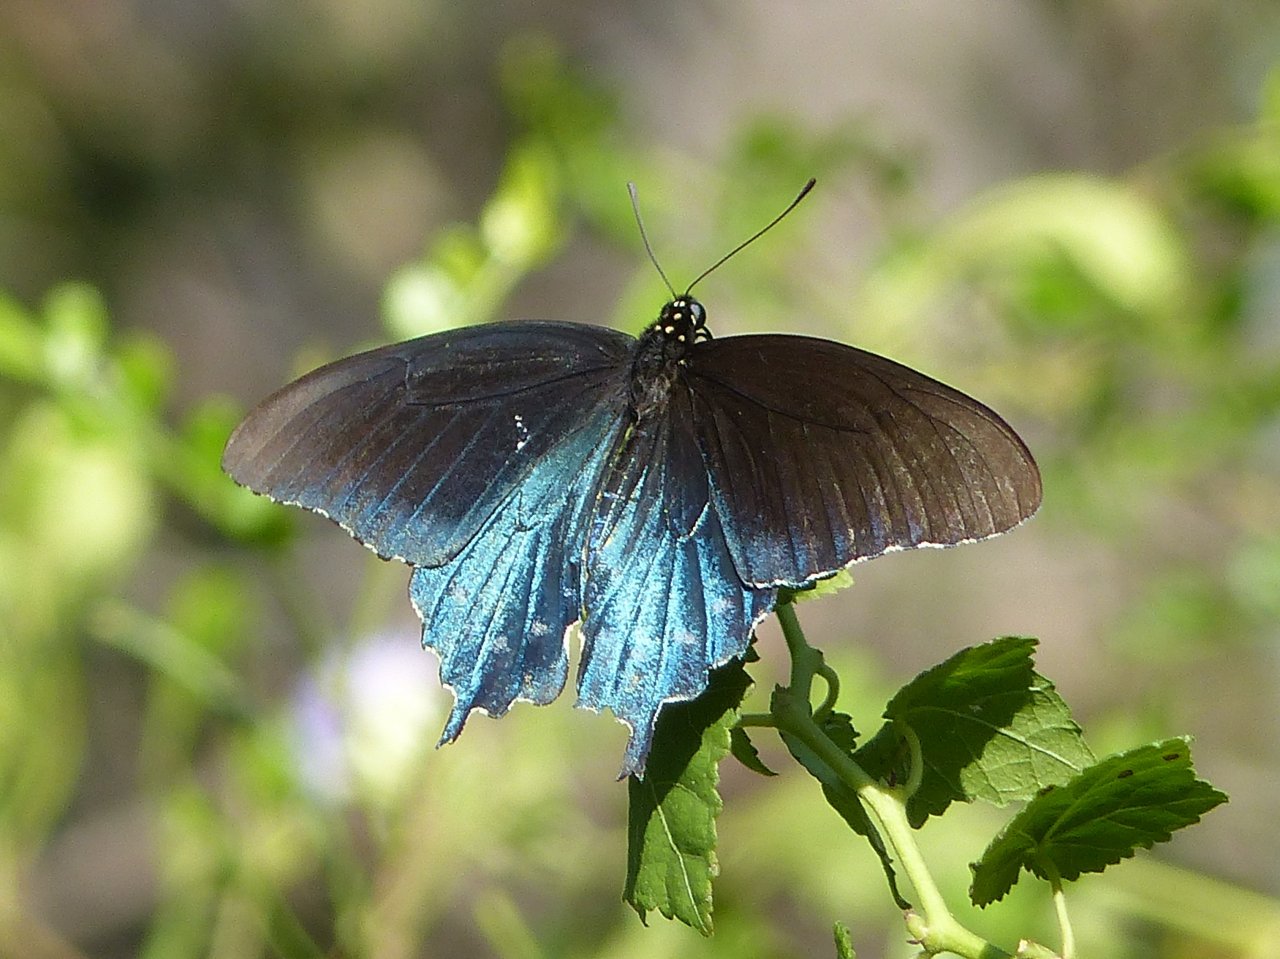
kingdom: Animalia
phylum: Arthropoda
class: Insecta
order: Lepidoptera
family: Papilionidae
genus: Battus
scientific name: Battus philenor
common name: Pipevine Swallowtail
